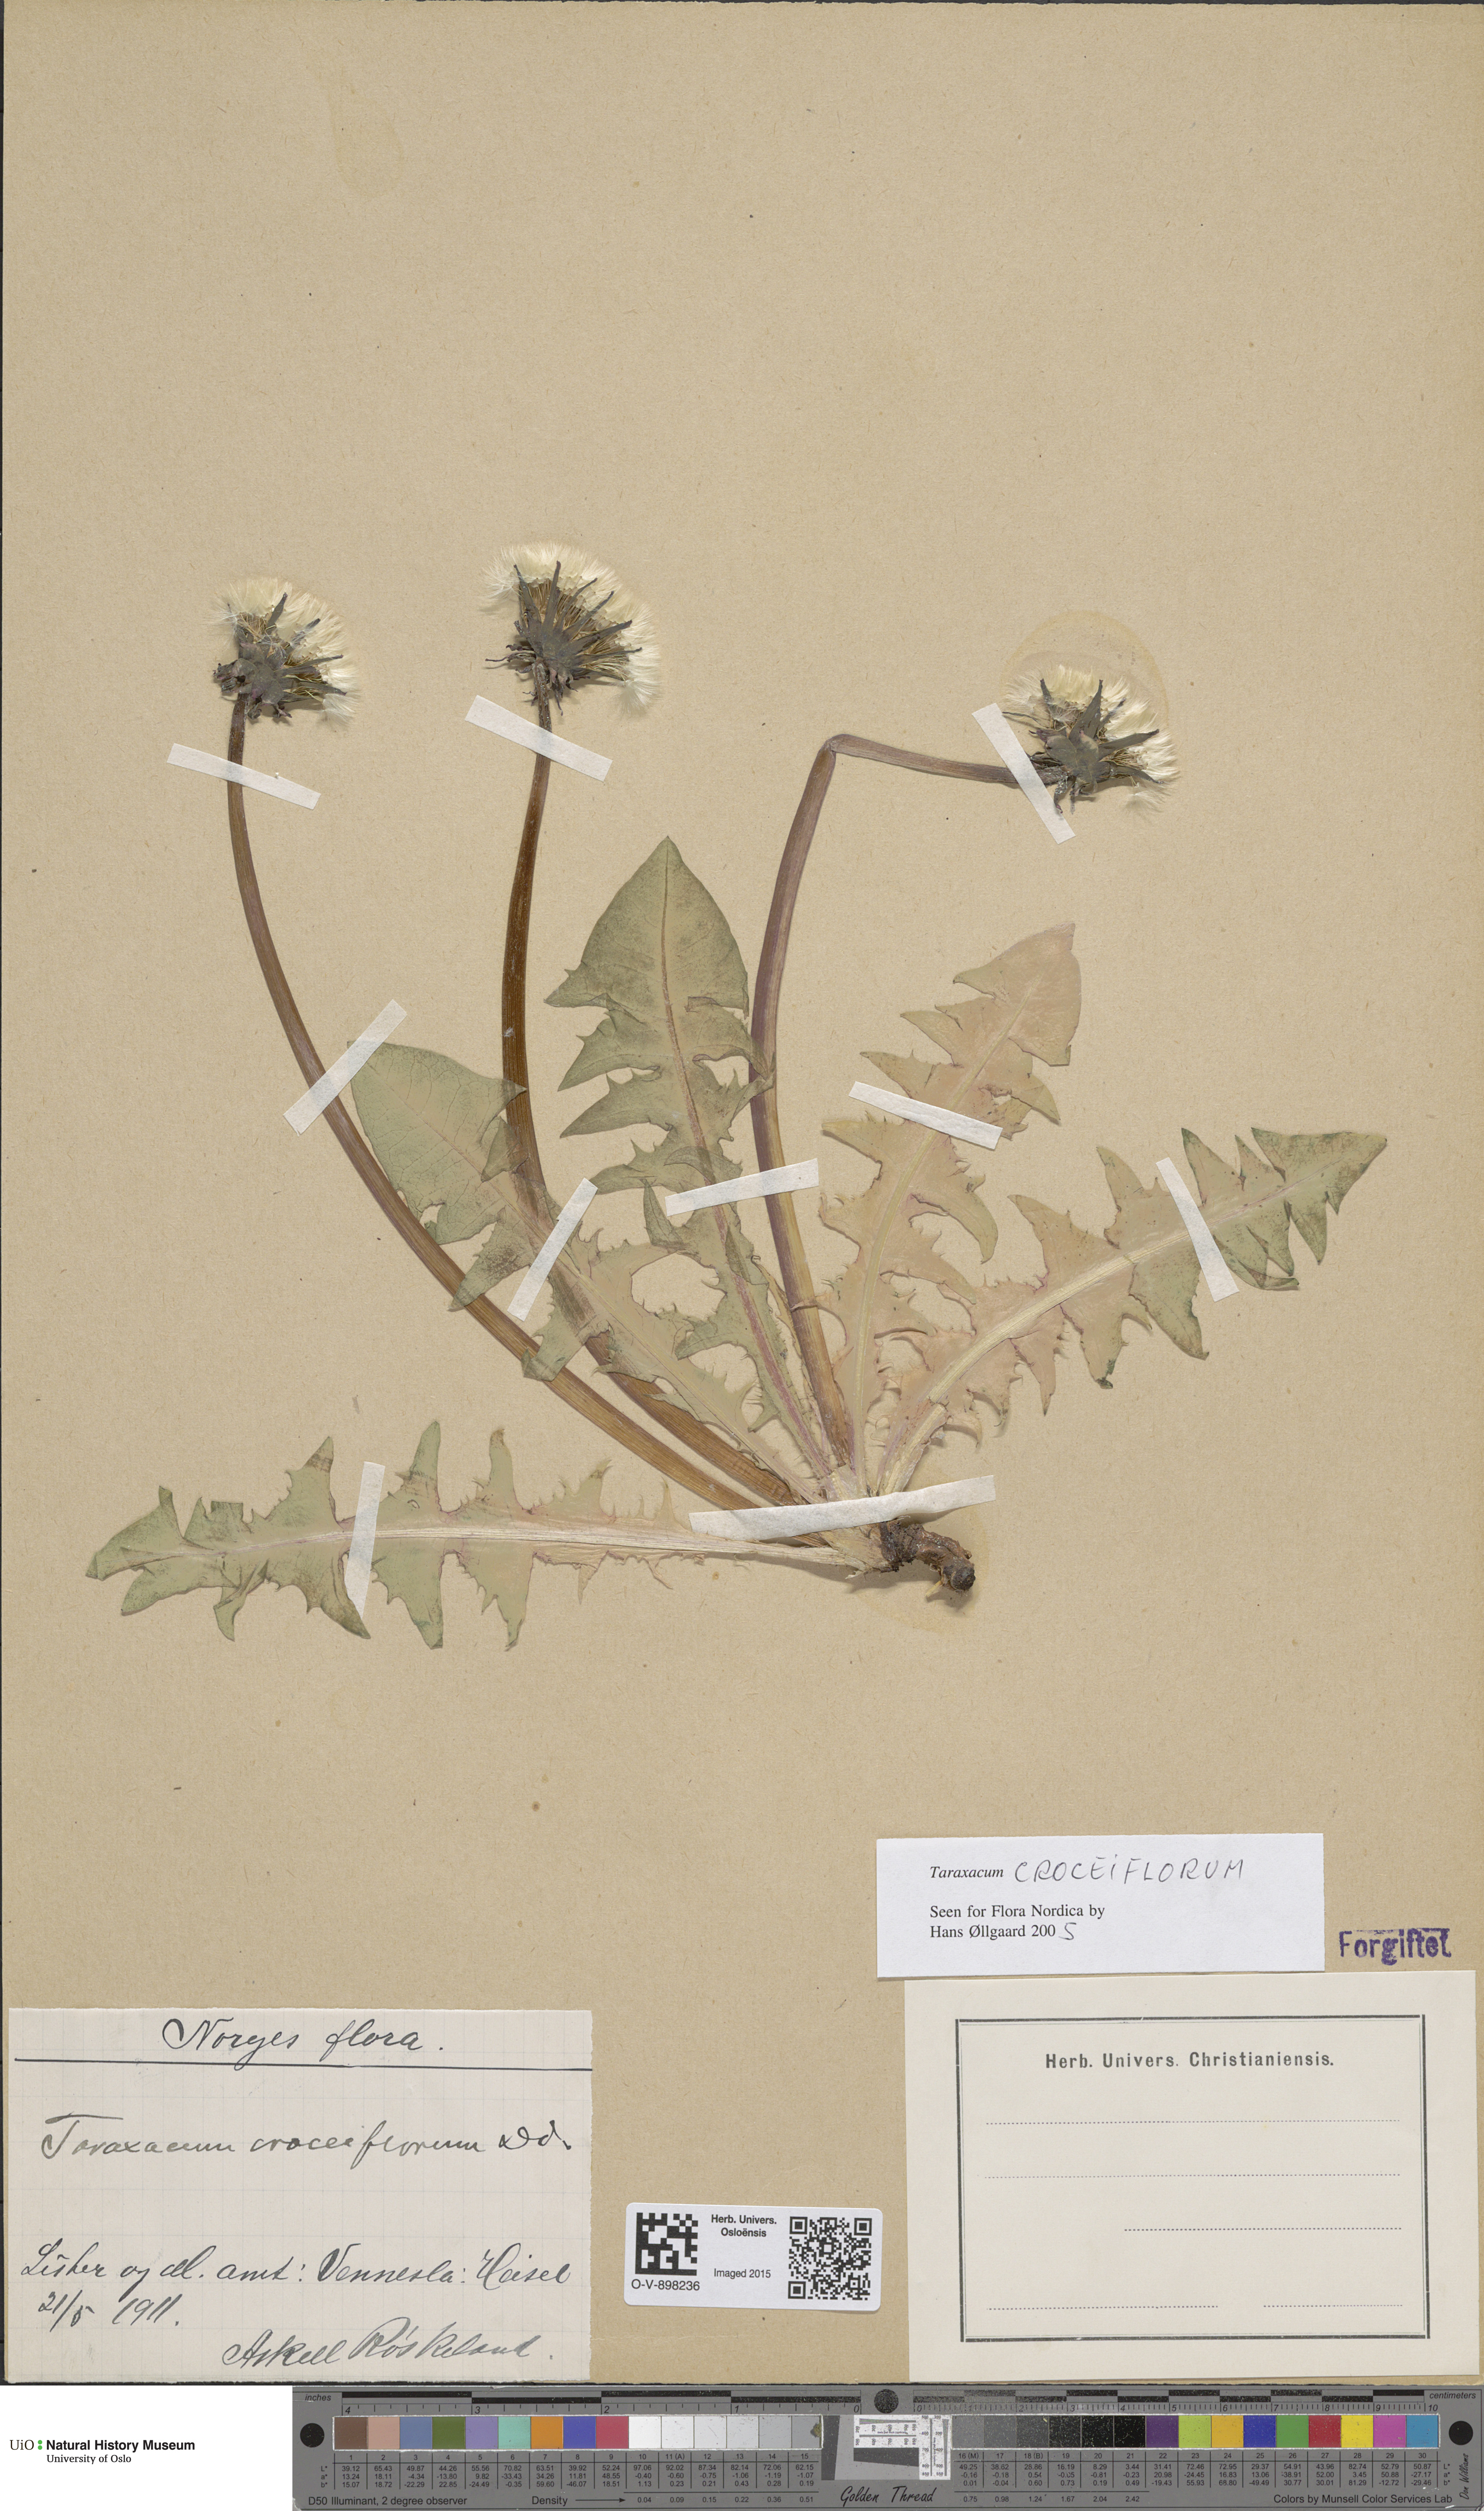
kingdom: Plantae
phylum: Tracheophyta
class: Magnoliopsida
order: Asterales
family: Asteraceae
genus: Taraxacum
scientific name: Taraxacum croceiflorum
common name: Orange-flowered dandelion
